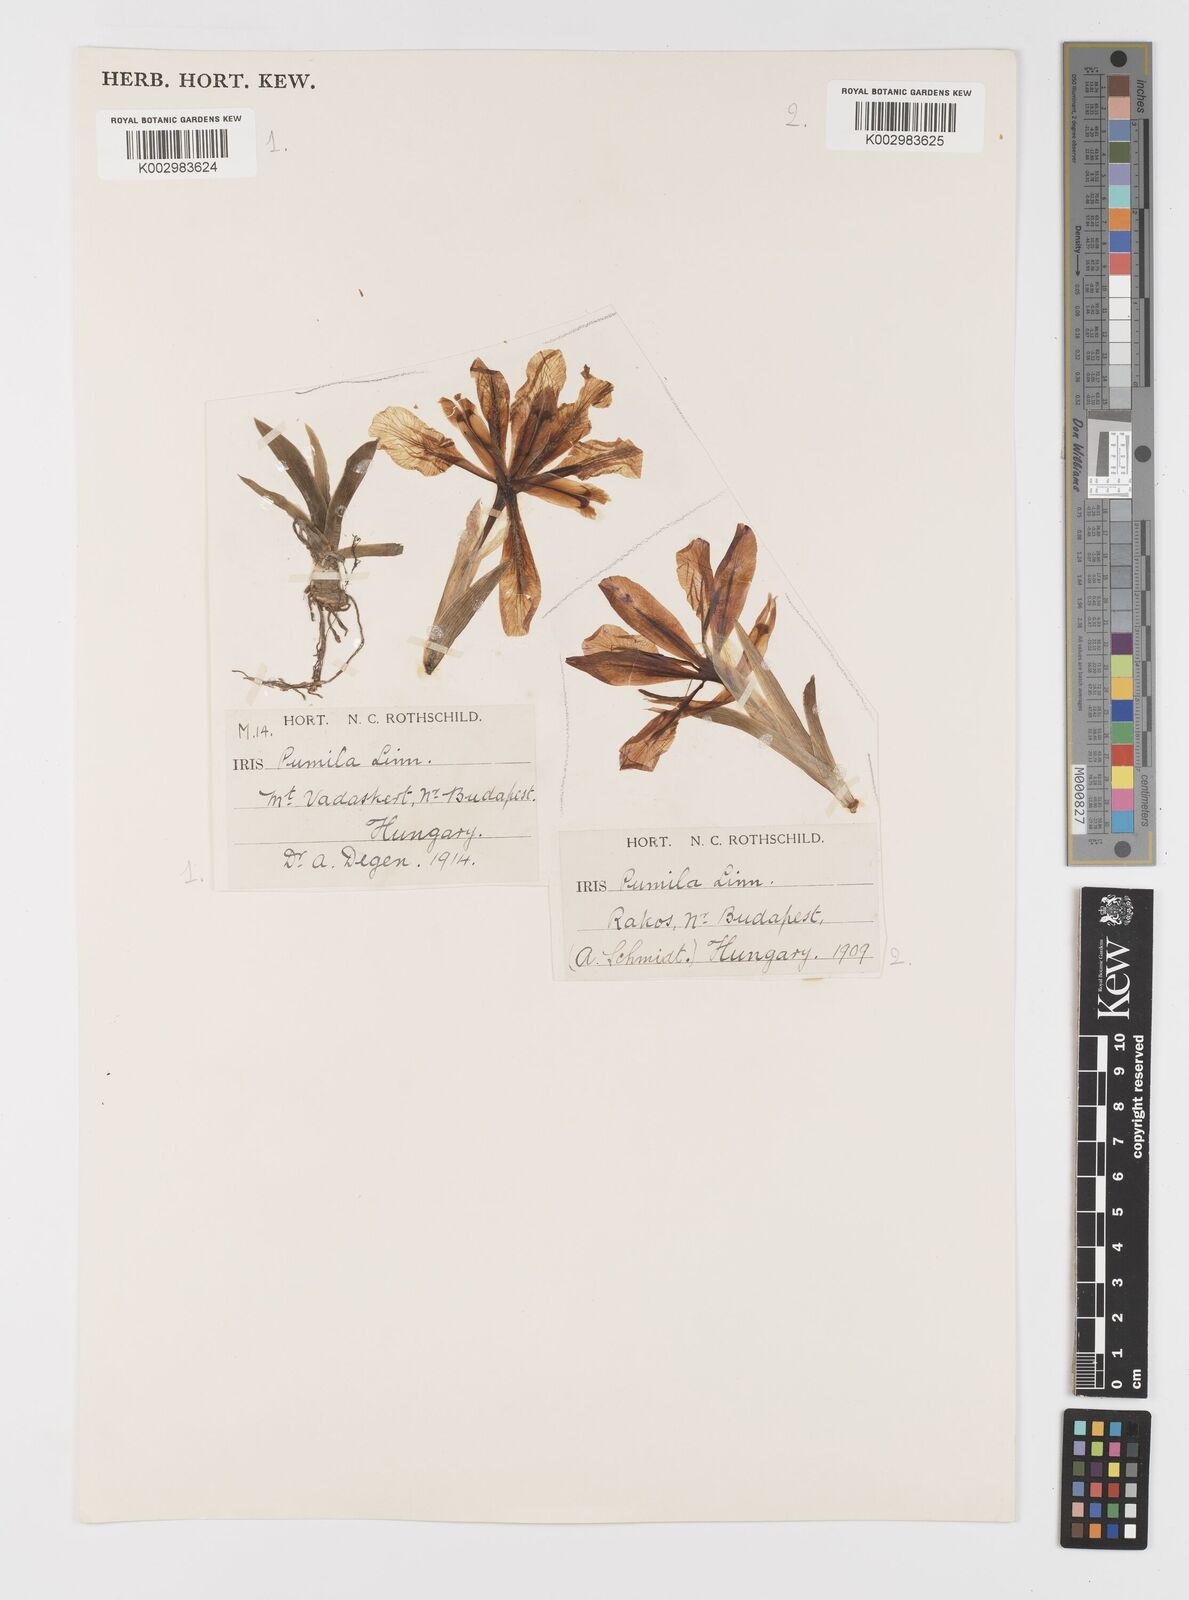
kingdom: Plantae
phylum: Tracheophyta
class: Liliopsida
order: Asparagales
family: Iridaceae
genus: Iris
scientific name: Iris pumila
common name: Dwarf iris
